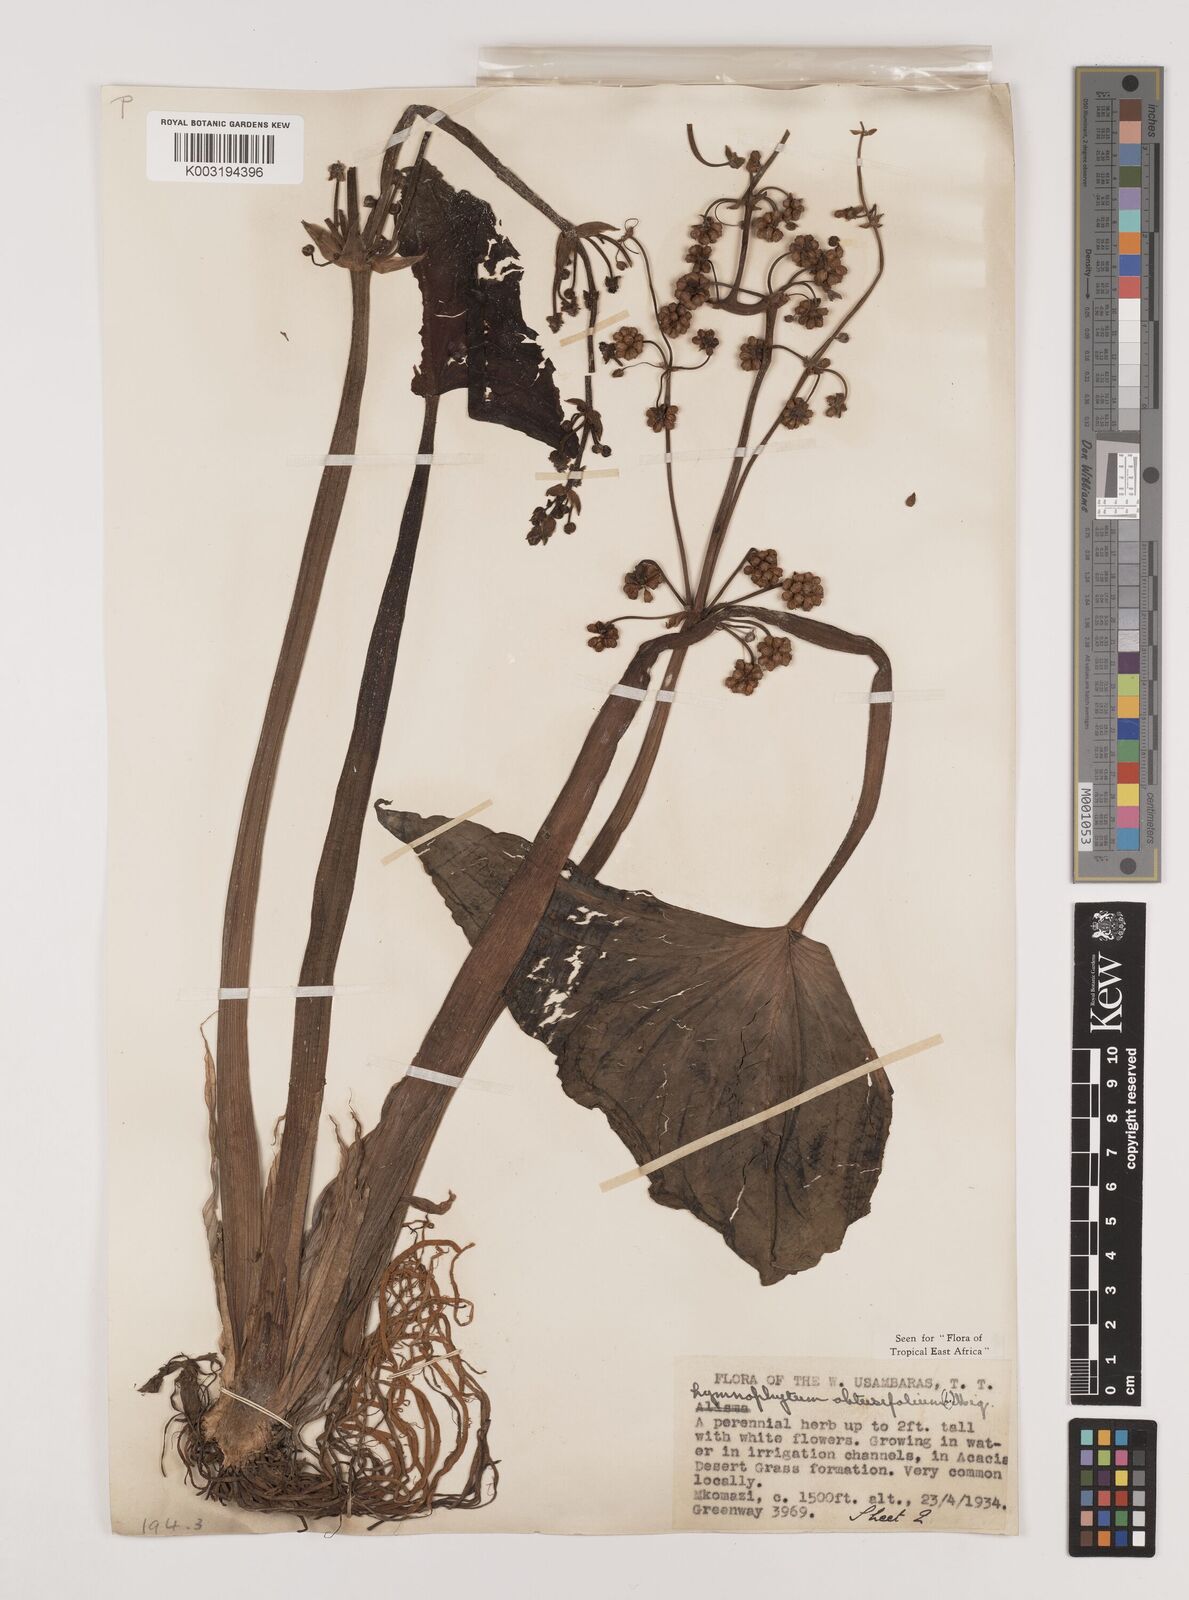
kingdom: Plantae
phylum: Tracheophyta
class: Liliopsida
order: Alismatales
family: Alismataceae
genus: Limnophyton
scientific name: Limnophyton obtusifolium
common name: Arrow head
